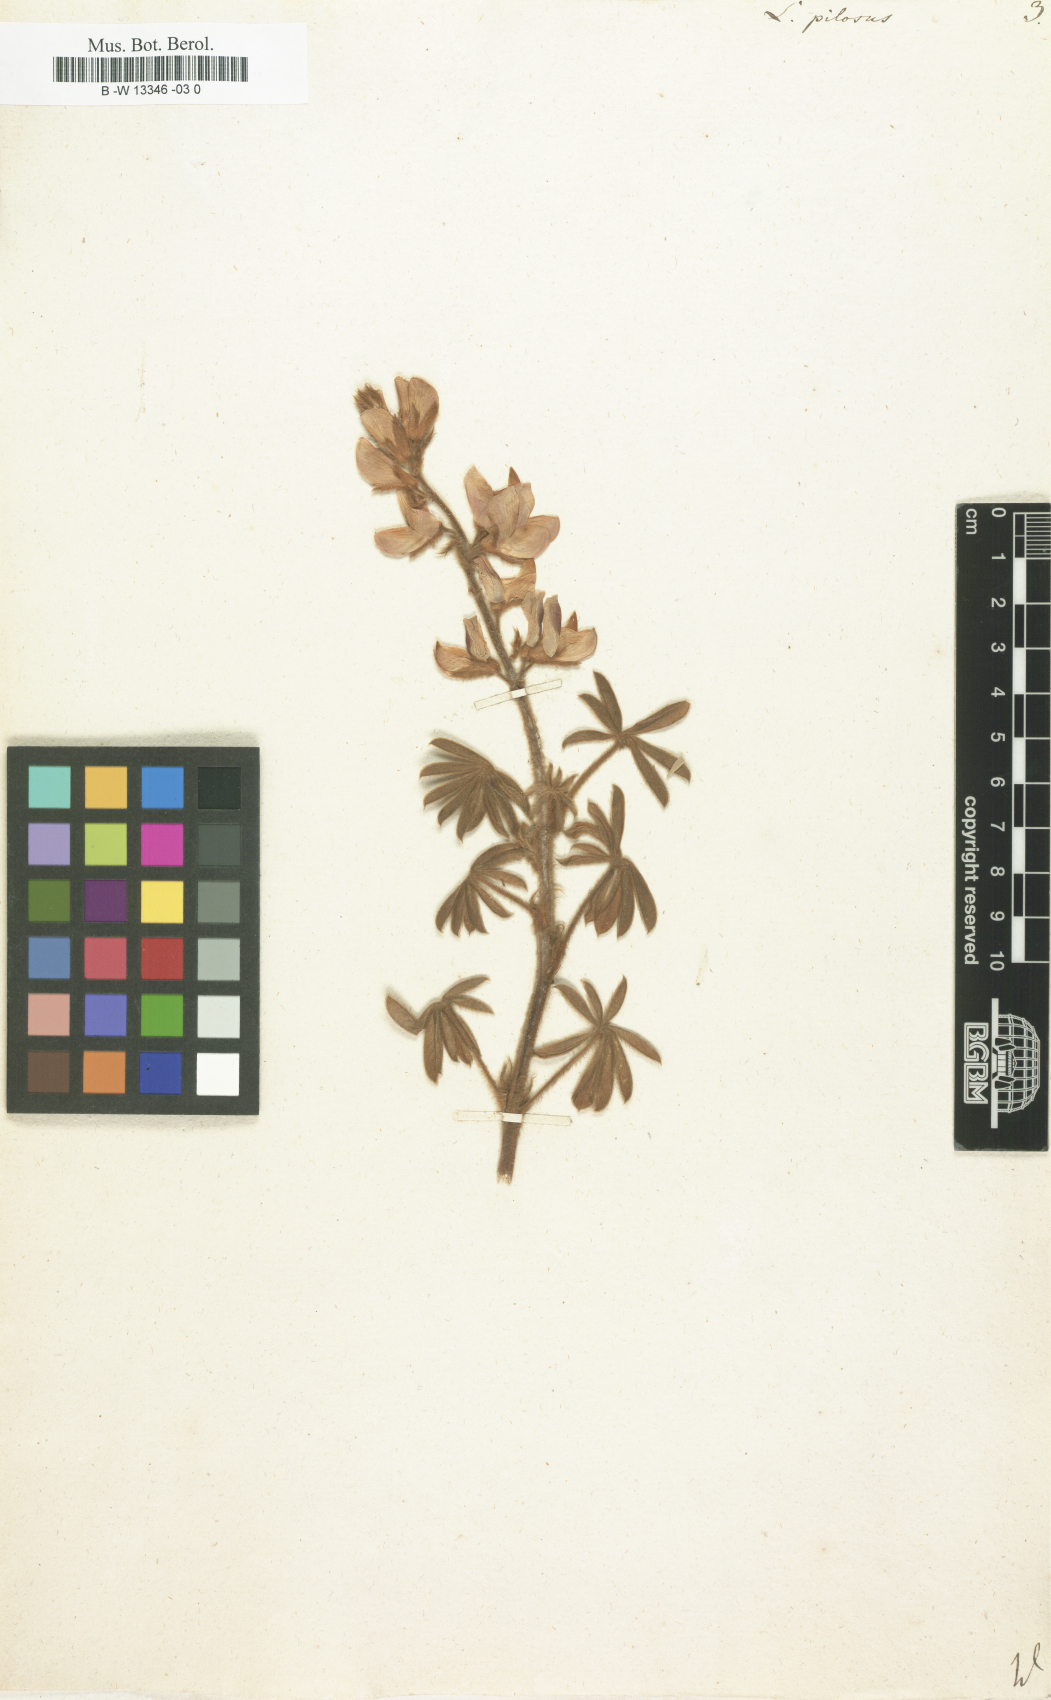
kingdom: Plantae
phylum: Tracheophyta
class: Magnoliopsida
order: Fabales
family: Fabaceae
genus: Lupinus
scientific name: Lupinus pilosus
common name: Blue lupine
